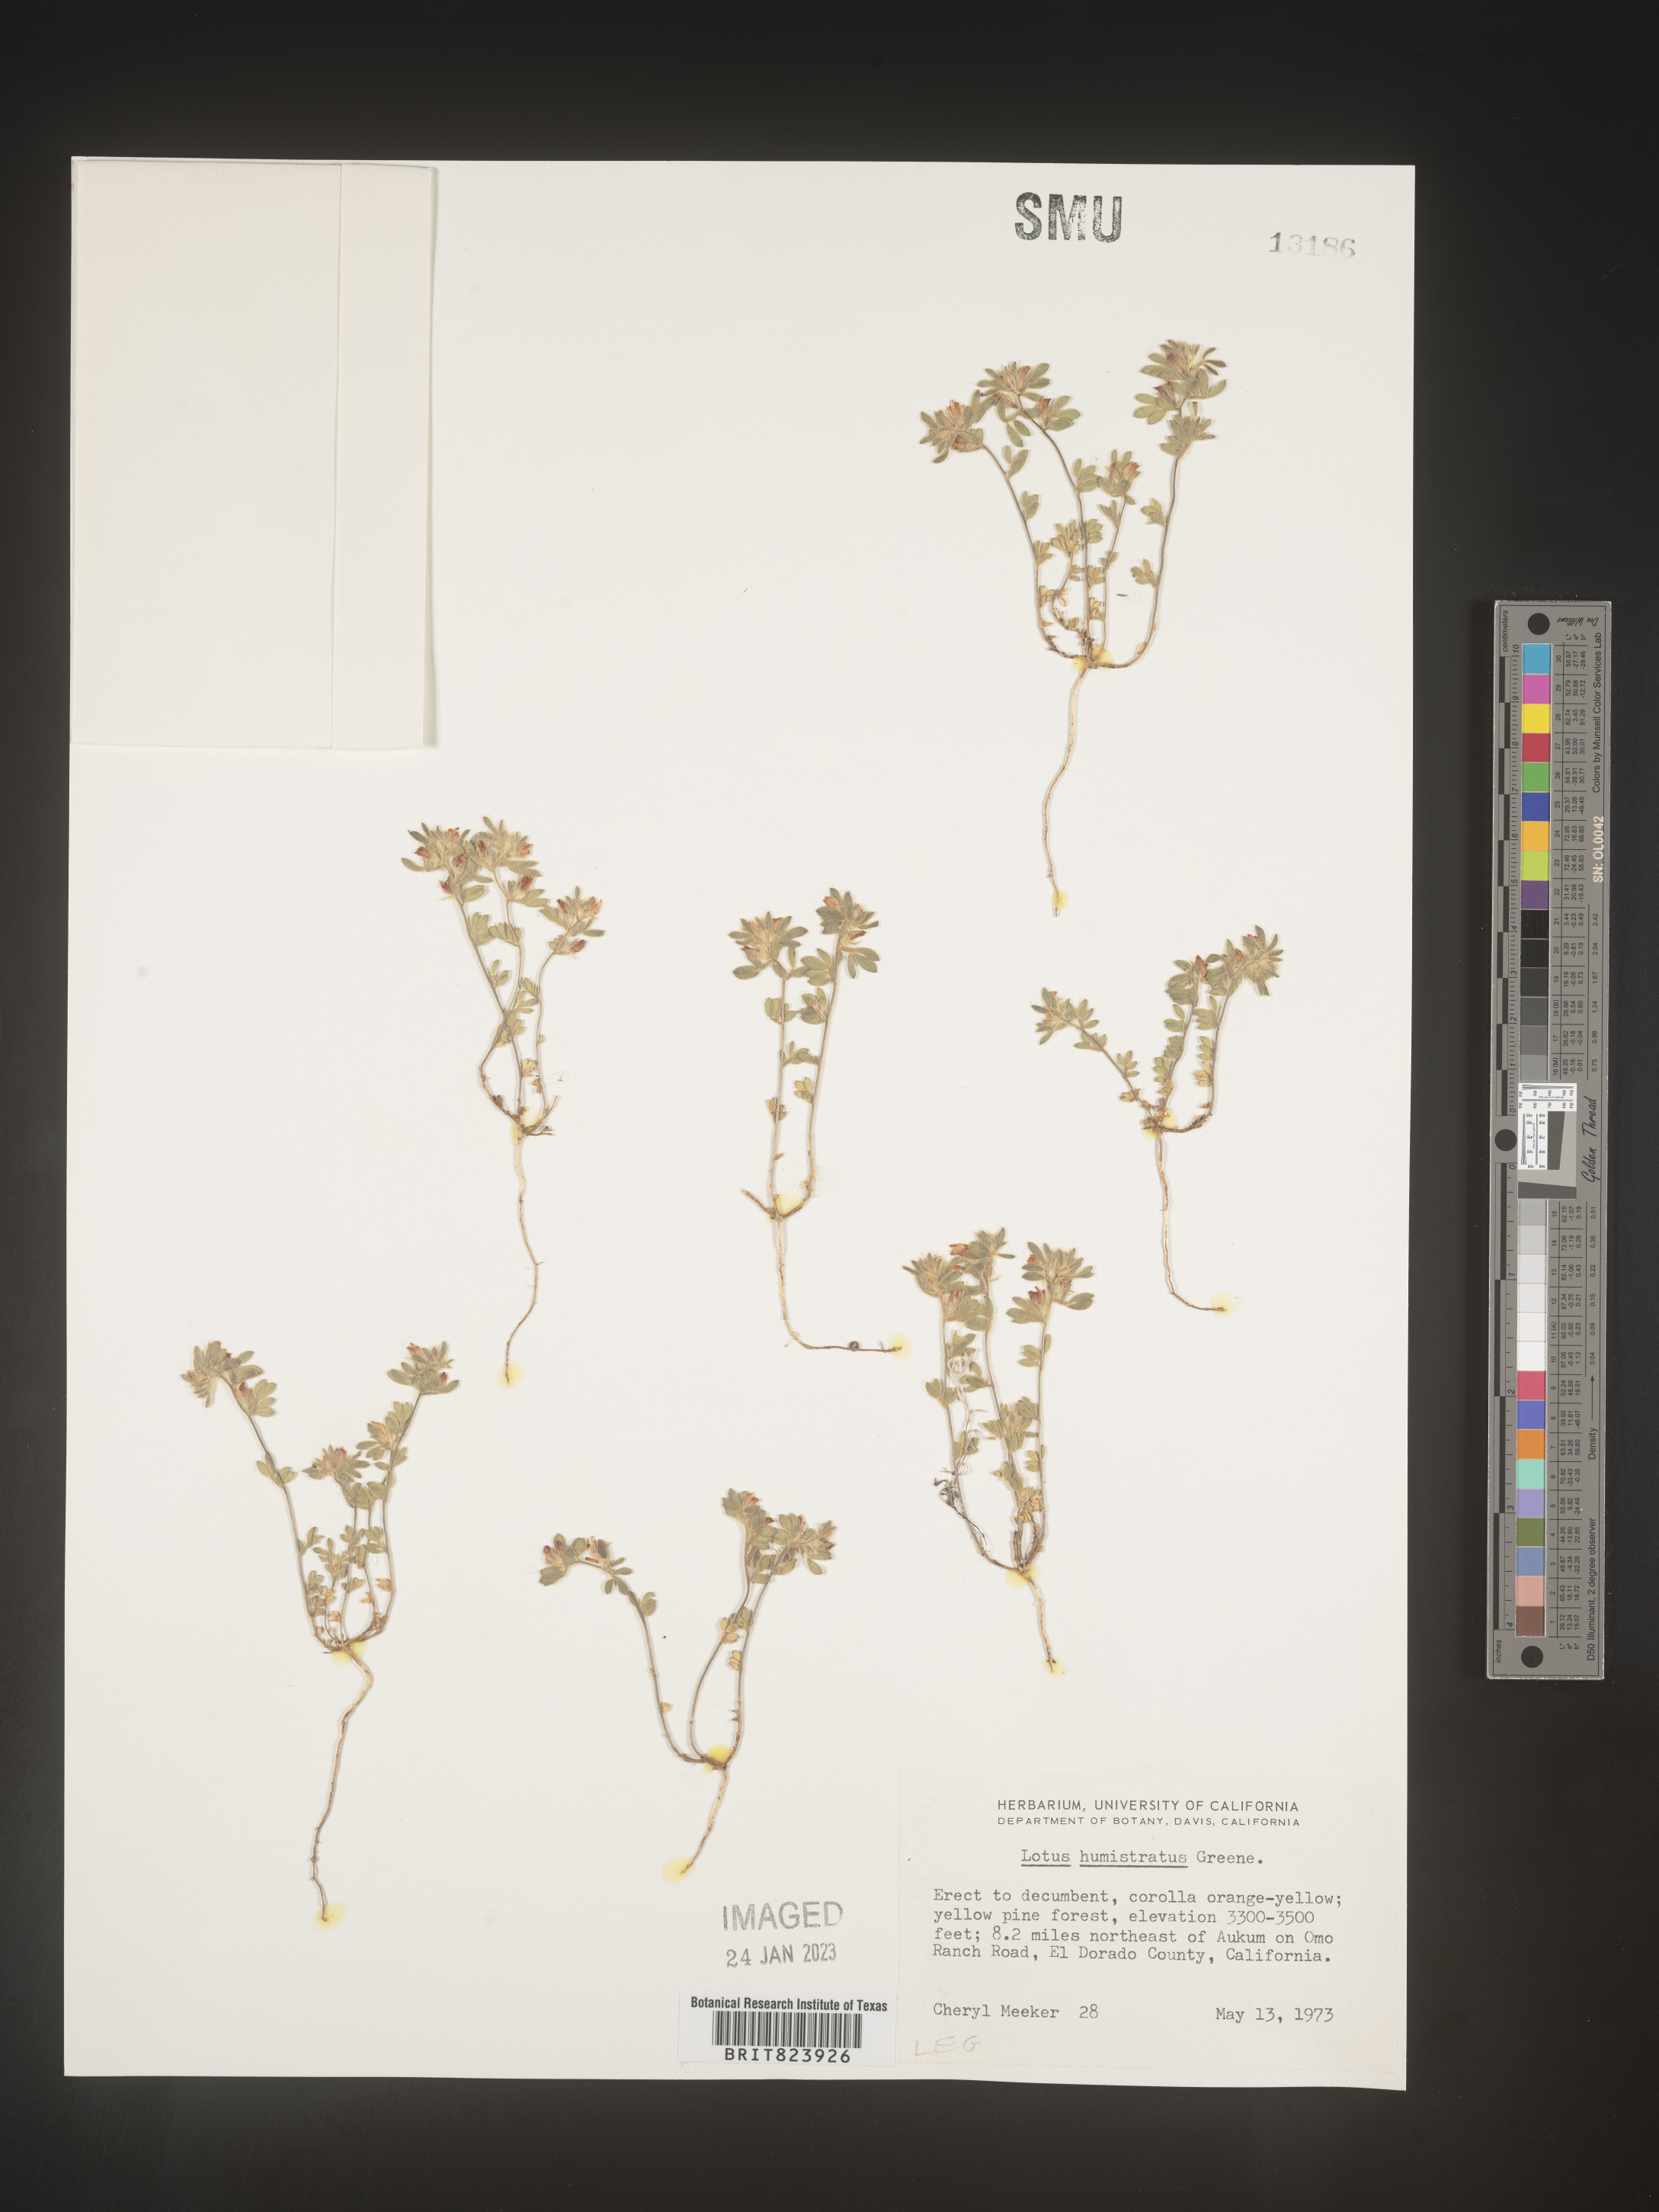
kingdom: Plantae
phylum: Tracheophyta
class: Magnoliopsida
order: Fabales
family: Fabaceae
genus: Acmispon
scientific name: Acmispon brachycarpus
